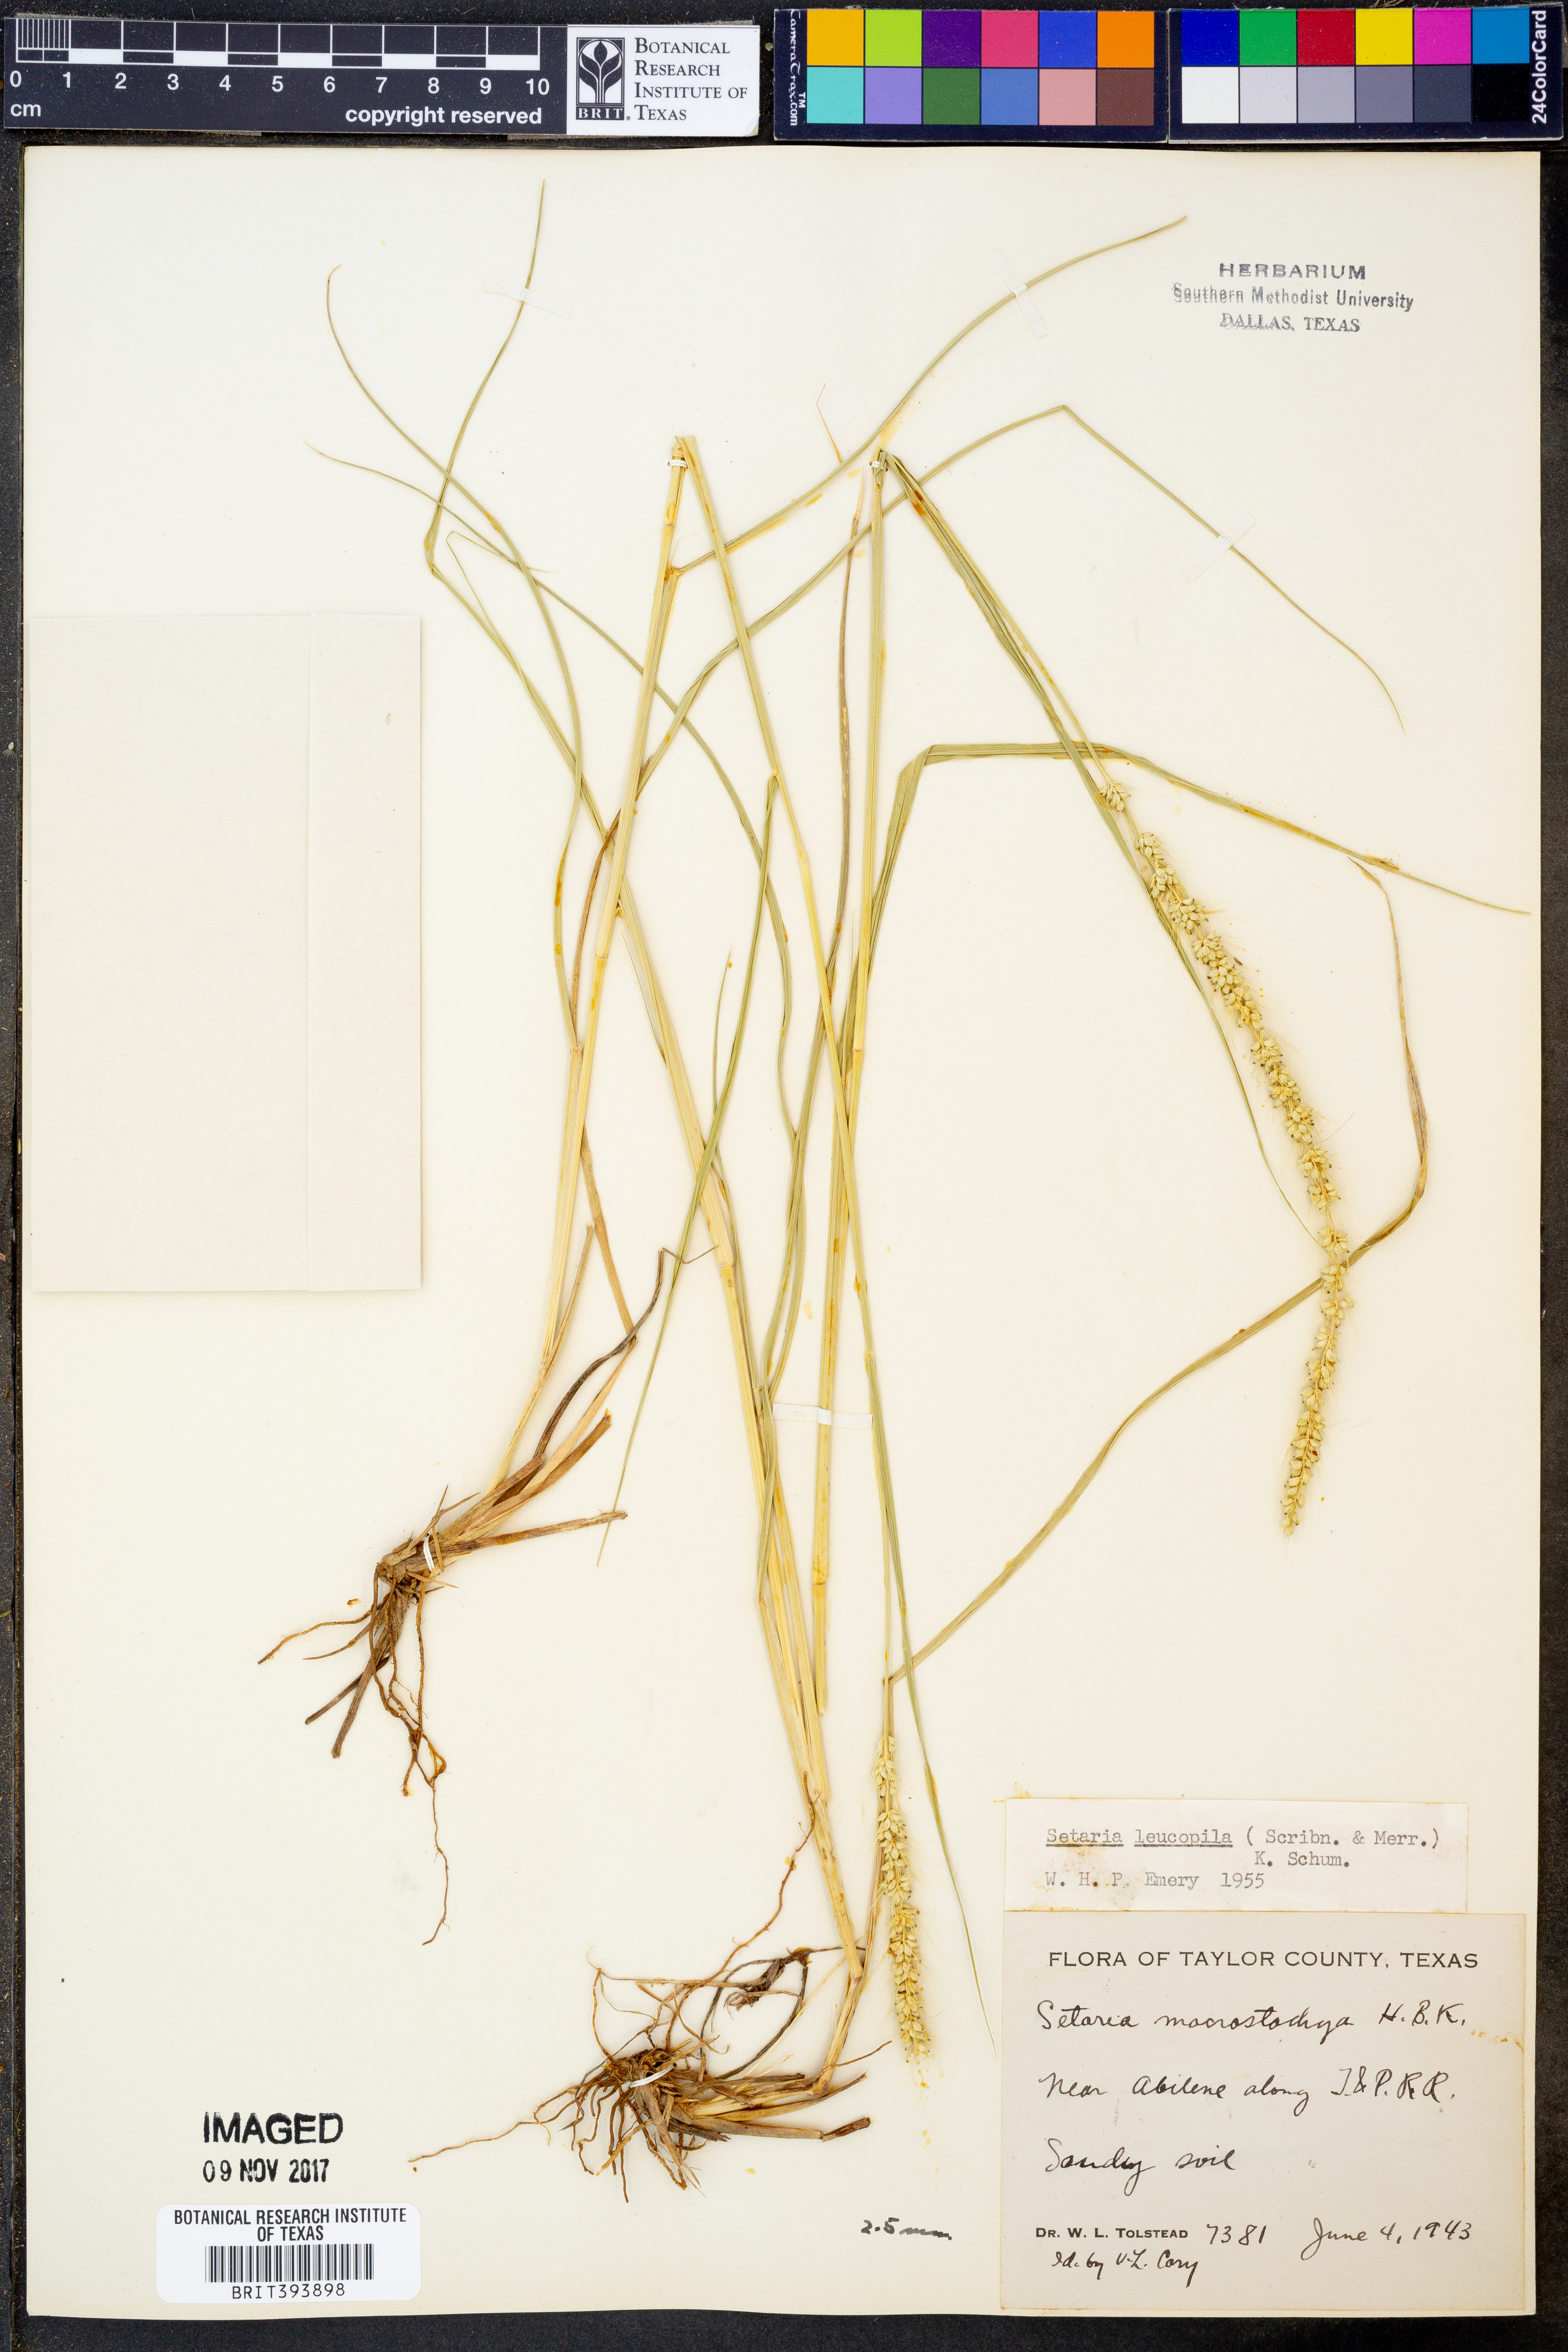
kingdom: Plantae
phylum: Tracheophyta
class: Liliopsida
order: Poales
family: Poaceae
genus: Setaria
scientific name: Setaria leucopila
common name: Plains bristle grass
